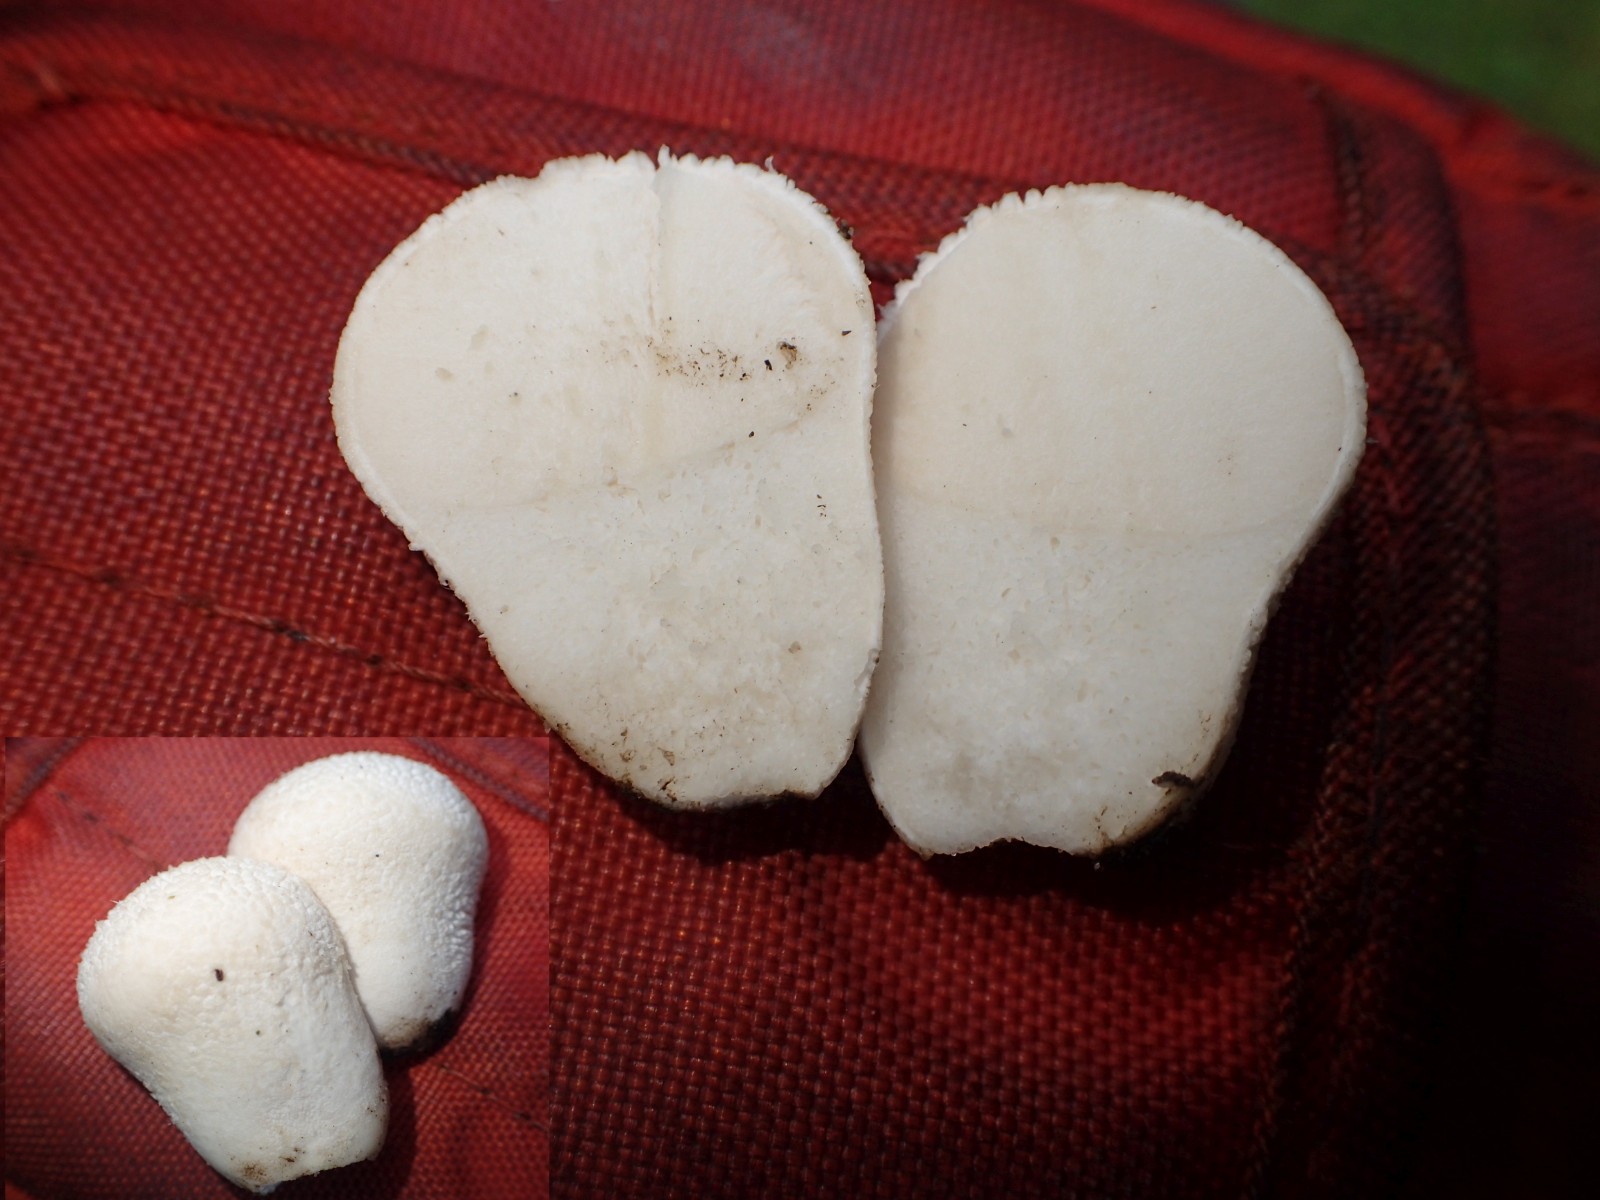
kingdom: Fungi
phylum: Basidiomycota
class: Agaricomycetes
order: Agaricales
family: Lycoperdaceae
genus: Lycoperdon
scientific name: Lycoperdon pratense
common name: flad støvbold
